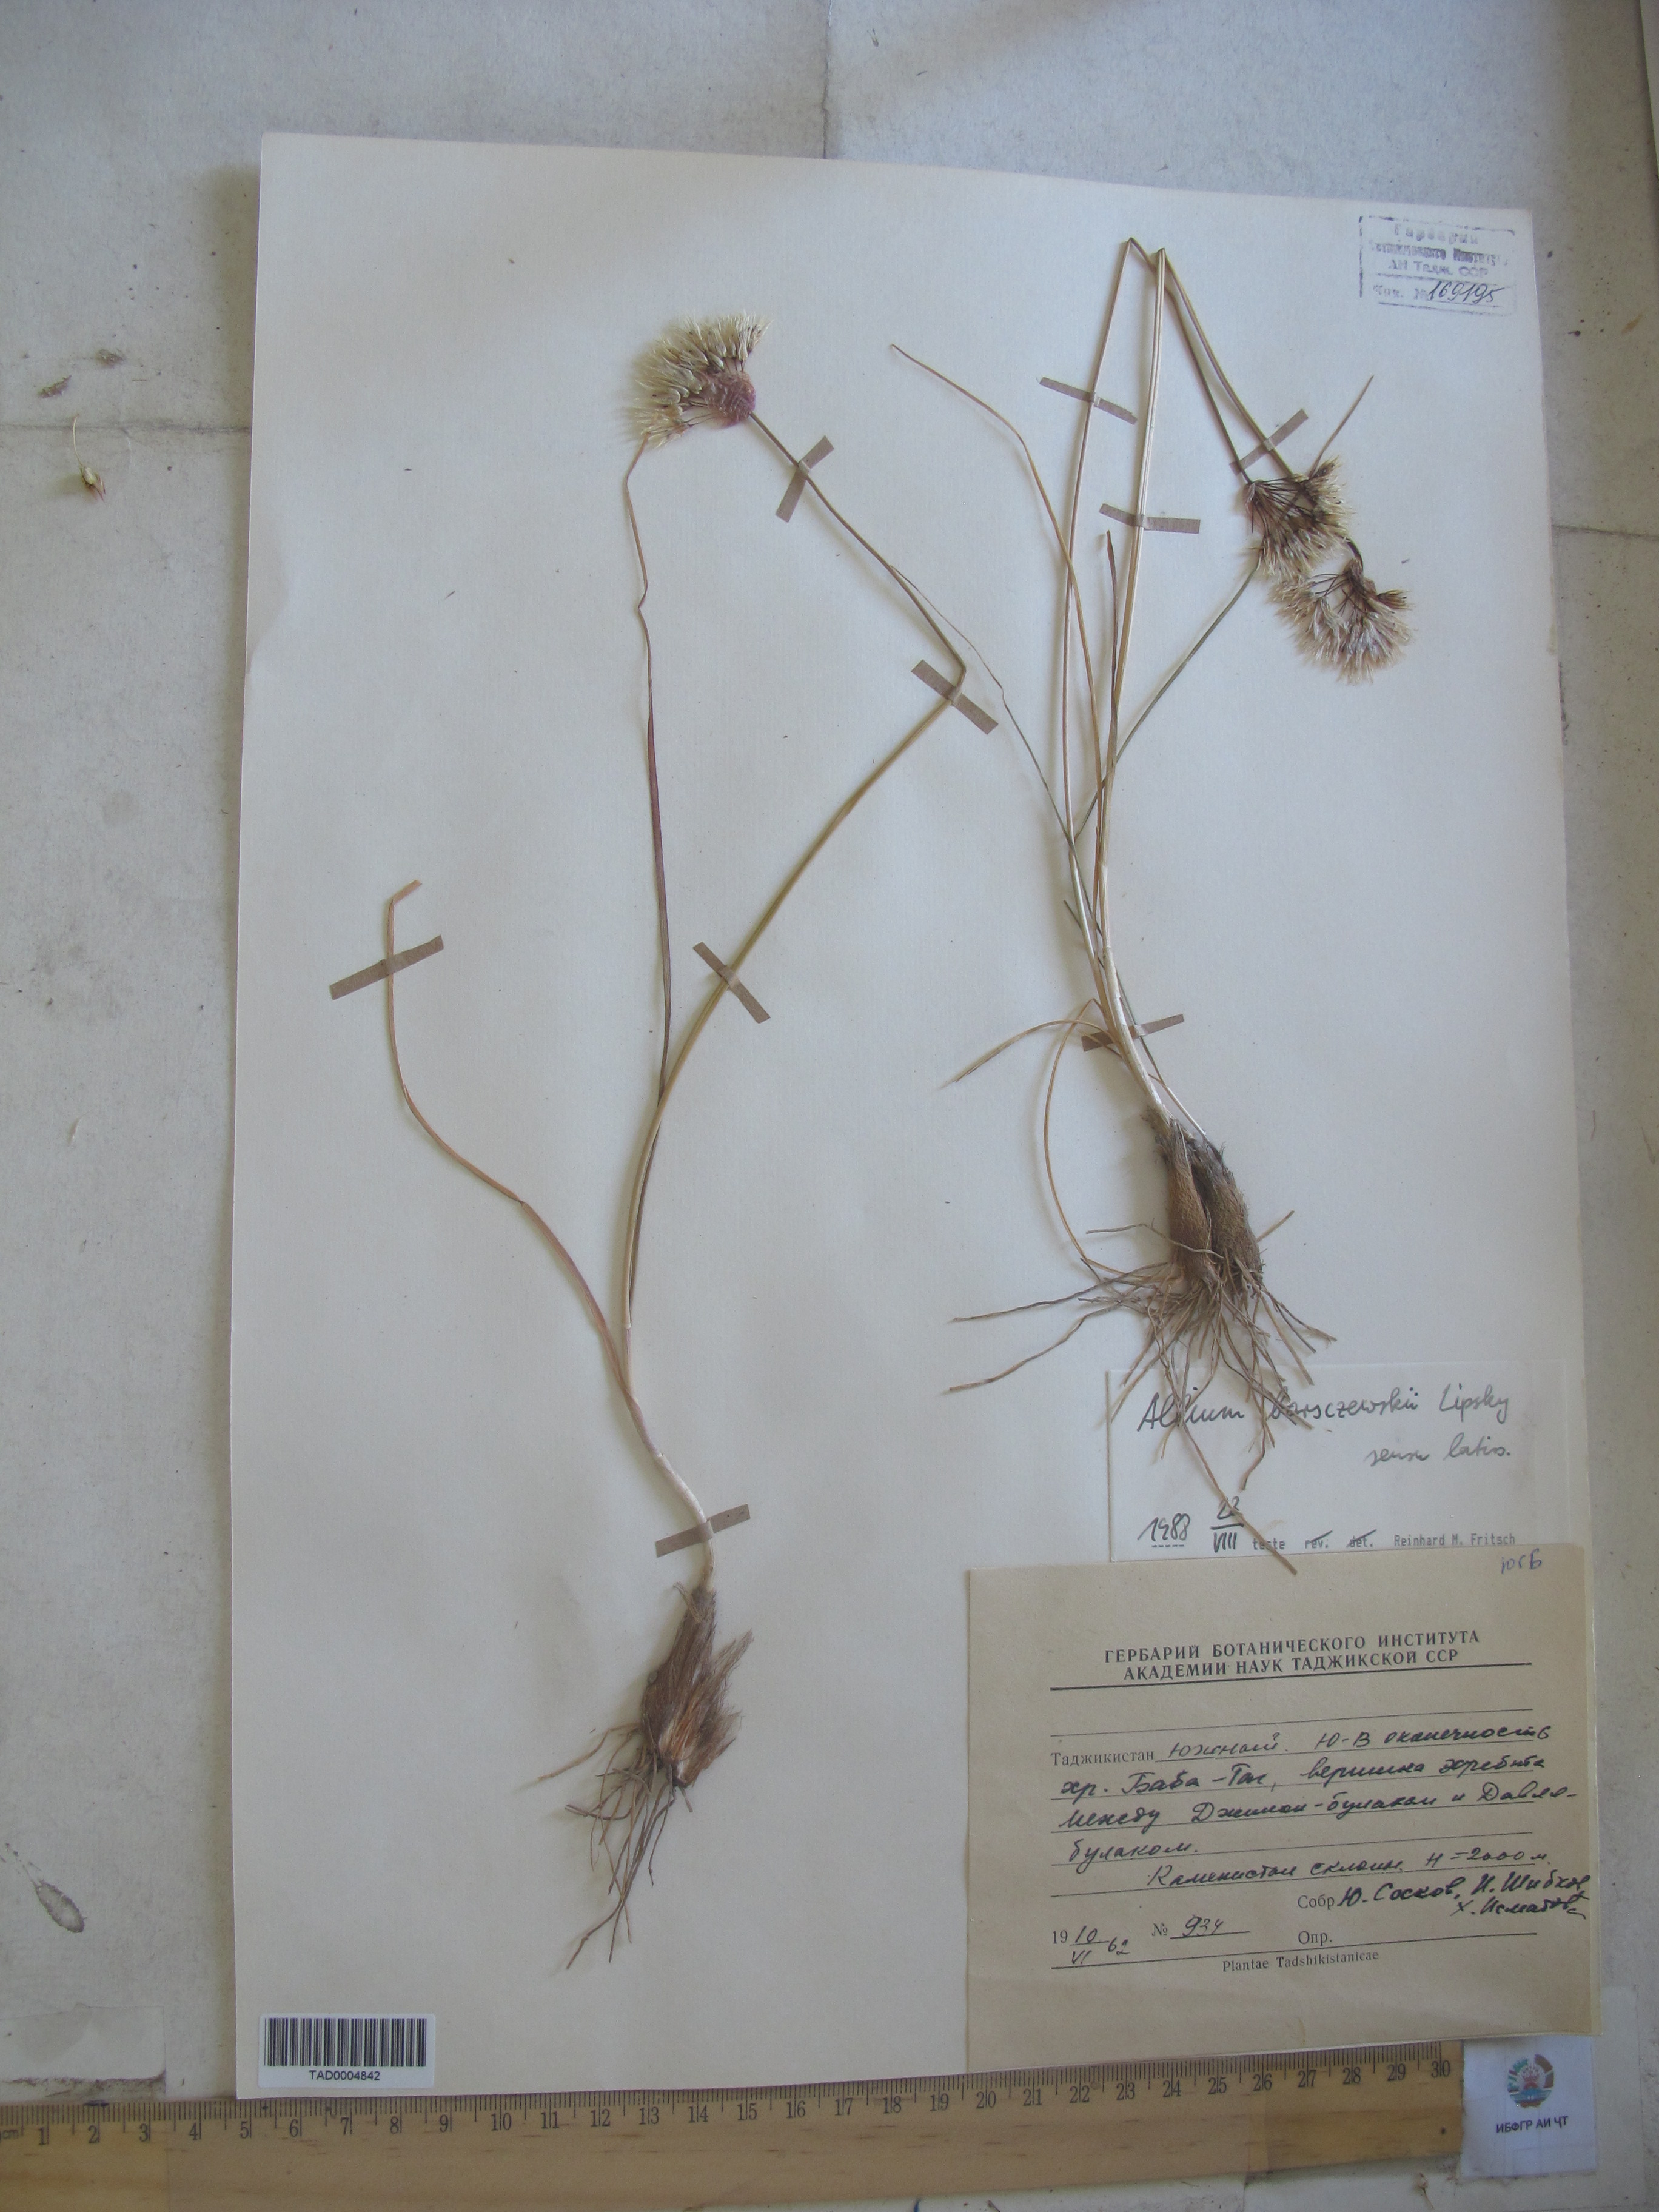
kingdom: Plantae
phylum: Tracheophyta
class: Liliopsida
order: Asparagales
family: Amaryllidaceae
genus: Allium
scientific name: Allium barsczewskii
